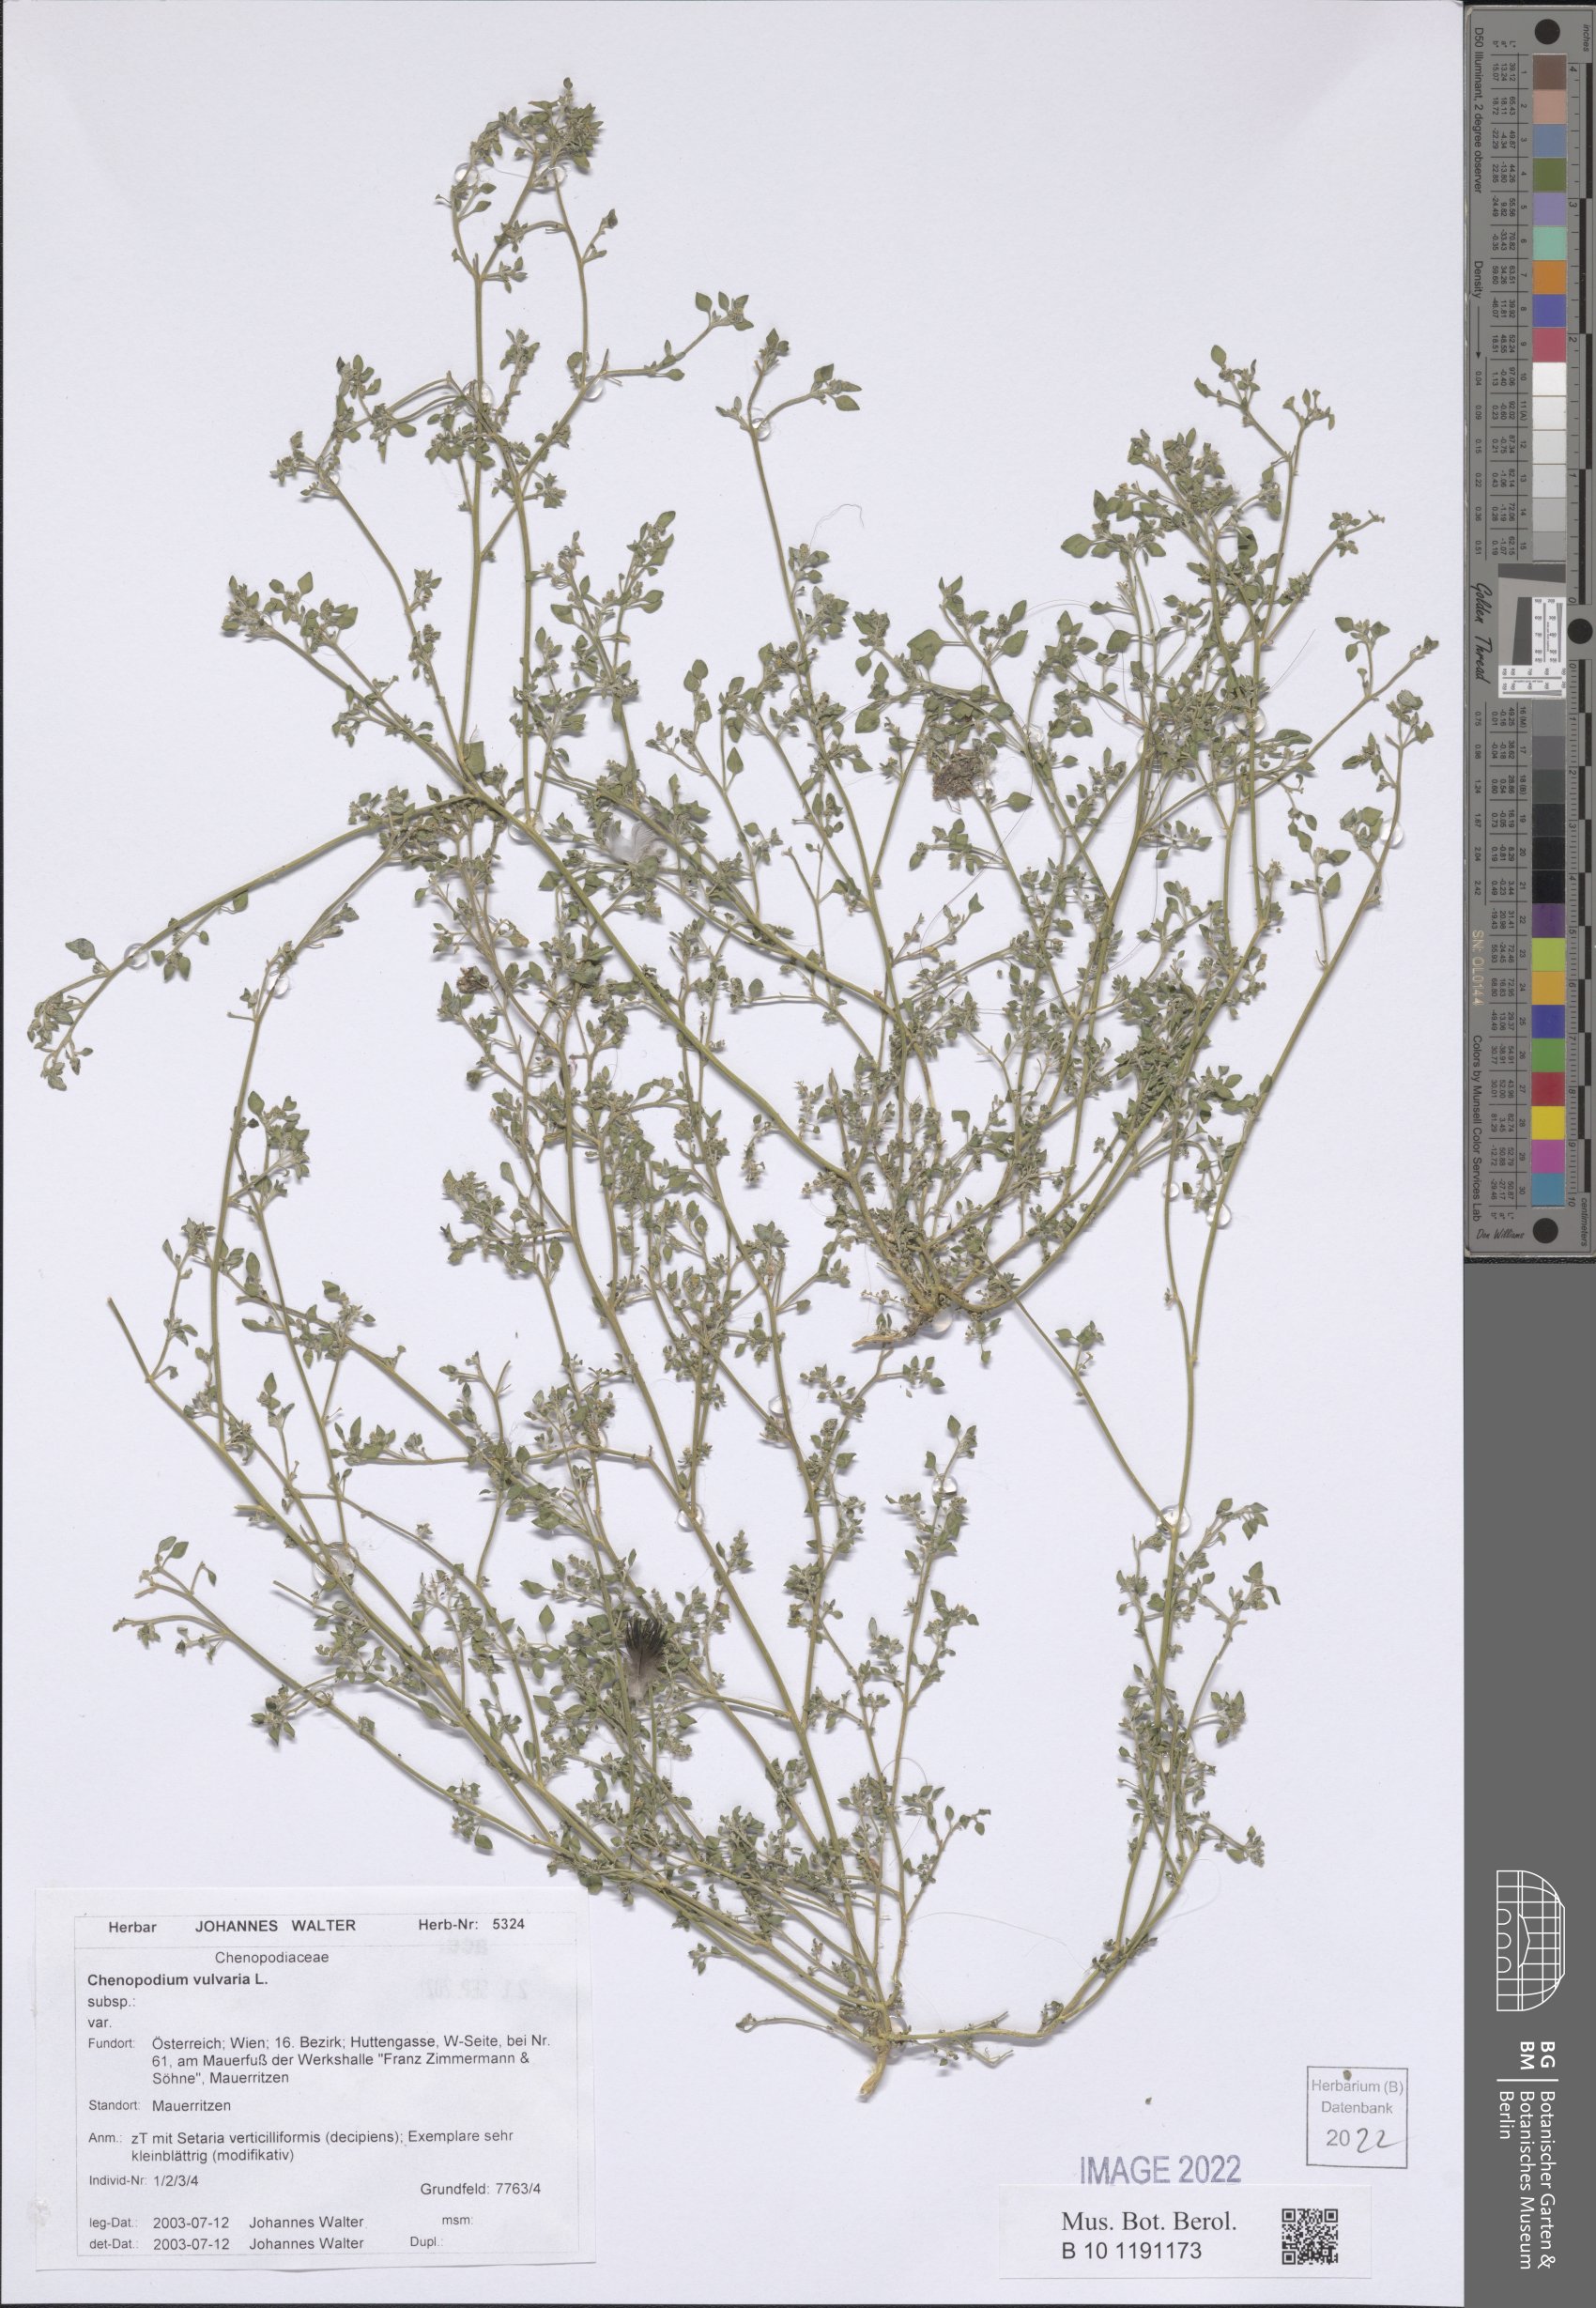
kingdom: Plantae
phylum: Tracheophyta
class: Magnoliopsida
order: Caryophyllales
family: Amaranthaceae
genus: Chenopodium
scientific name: Chenopodium vulvaria
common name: Stinking goosefoot
